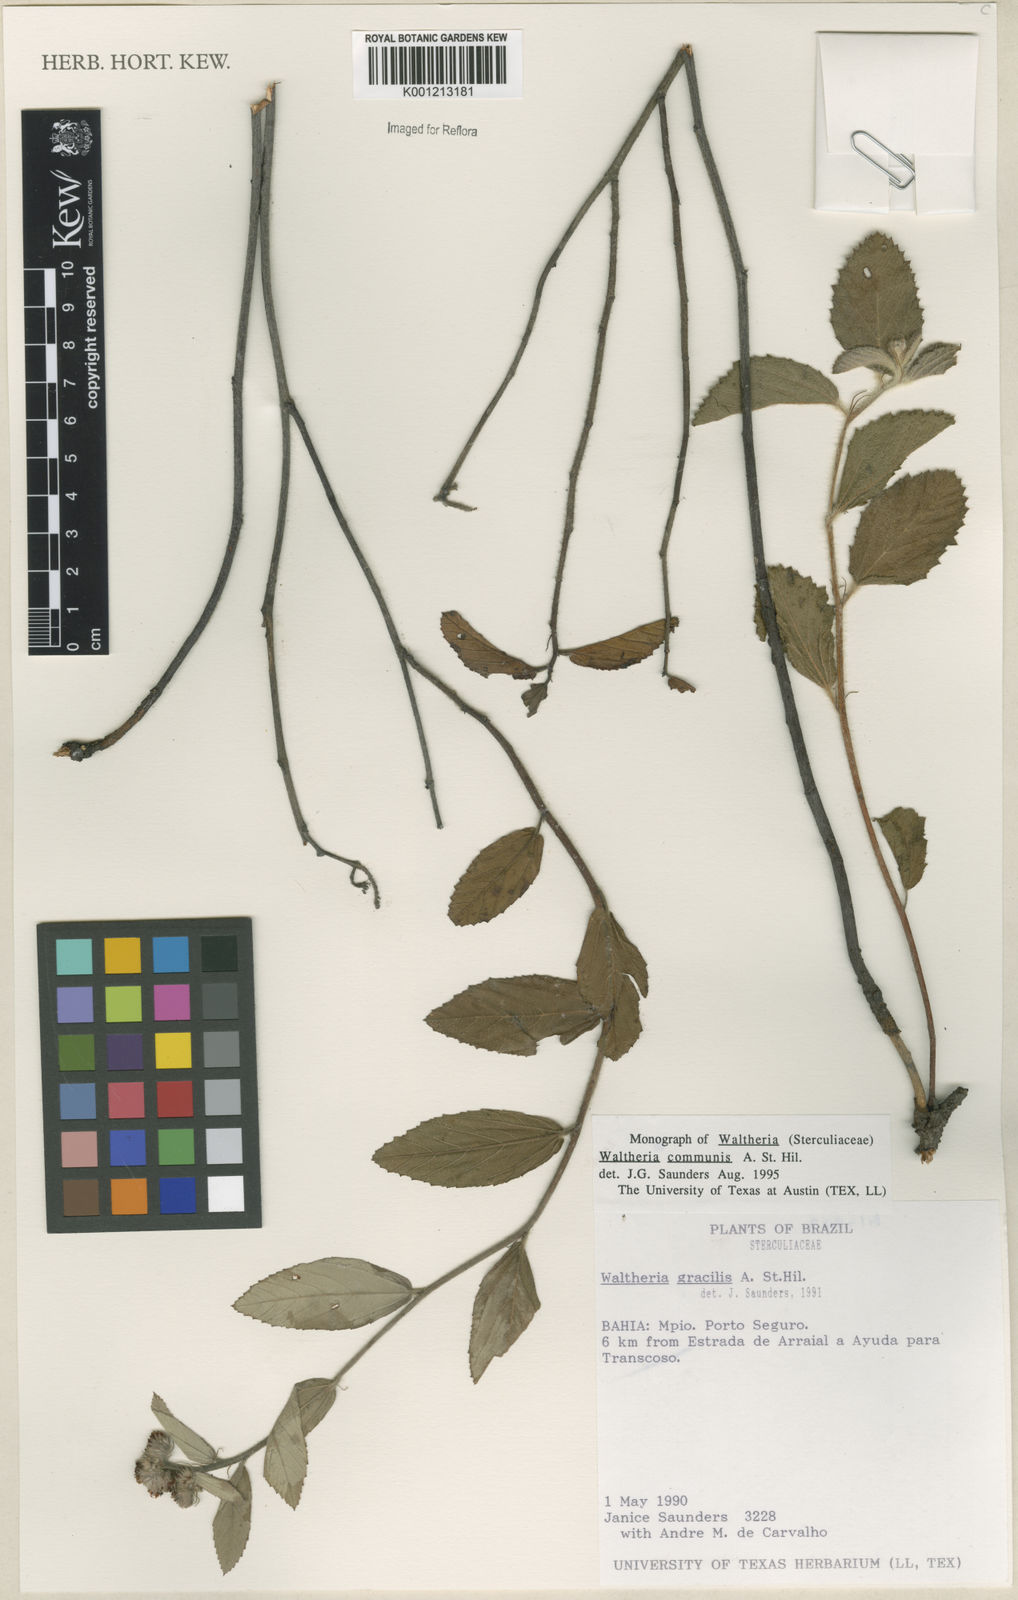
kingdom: Plantae
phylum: Tracheophyta
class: Magnoliopsida
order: Malvales
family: Malvaceae
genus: Waltheria
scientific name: Waltheria communis
